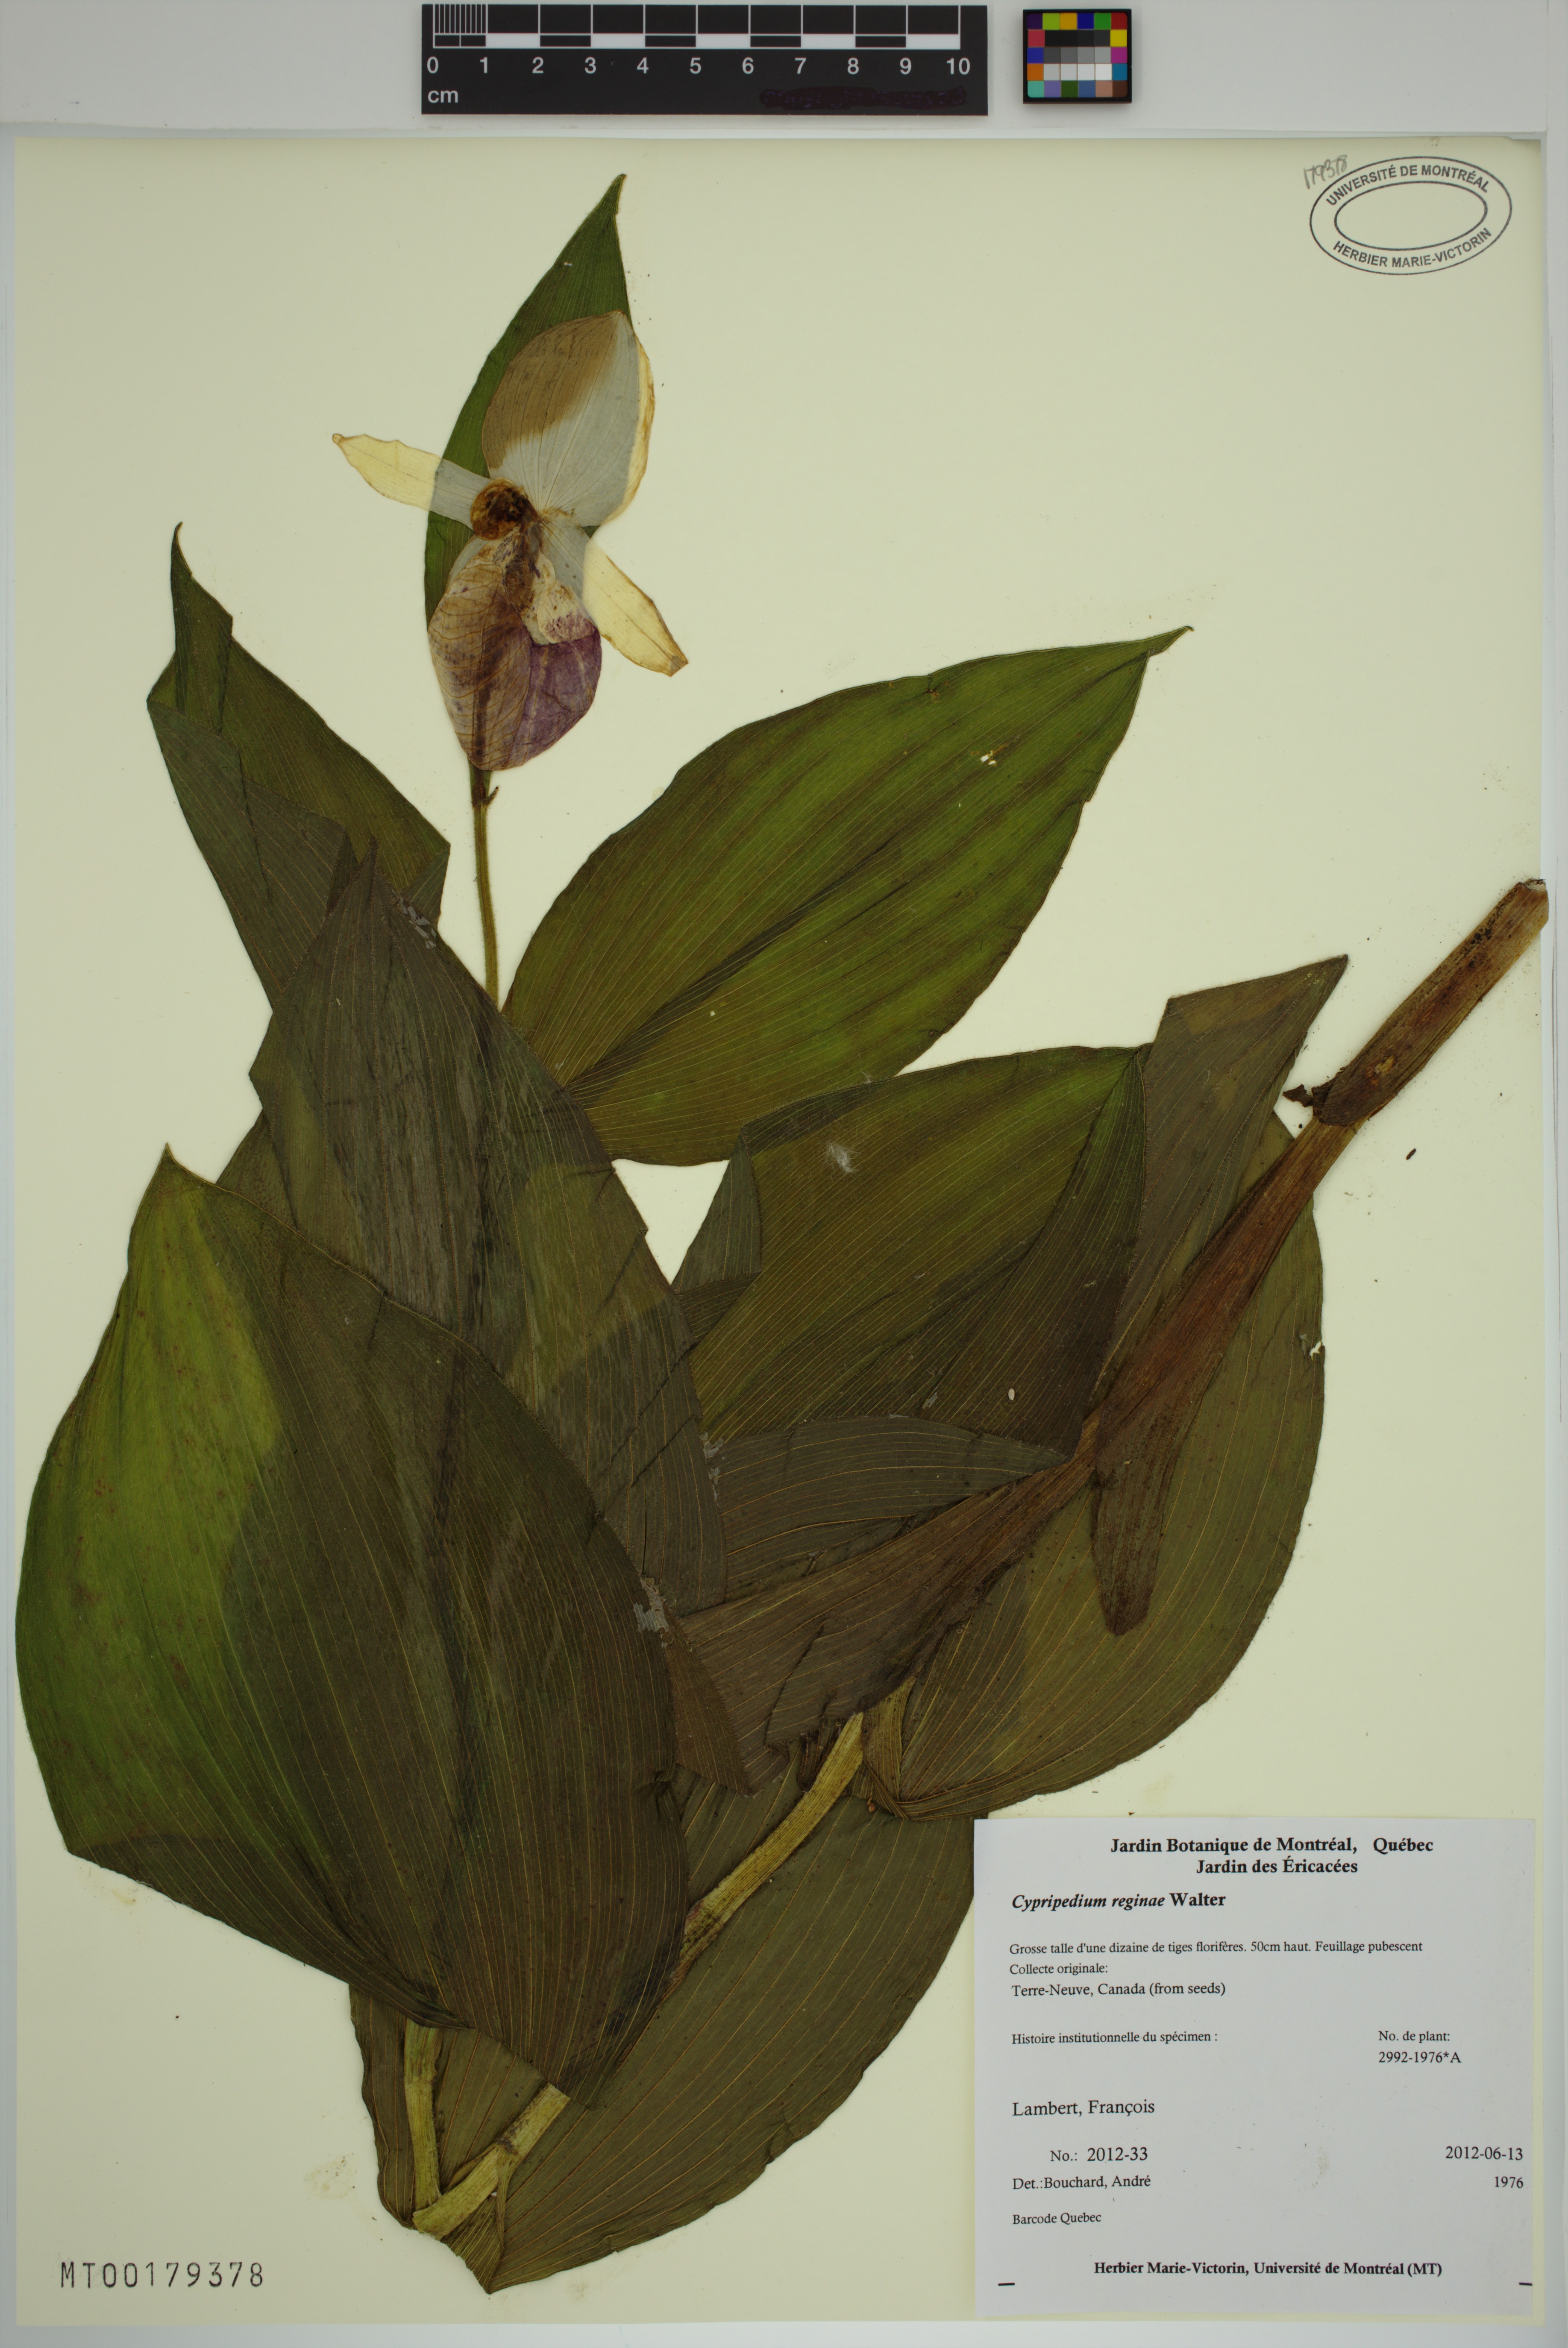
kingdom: Plantae
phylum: Tracheophyta
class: Liliopsida
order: Asparagales
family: Orchidaceae
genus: Cypripedium
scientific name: Cypripedium reginae
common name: Queen lady's-slipper
